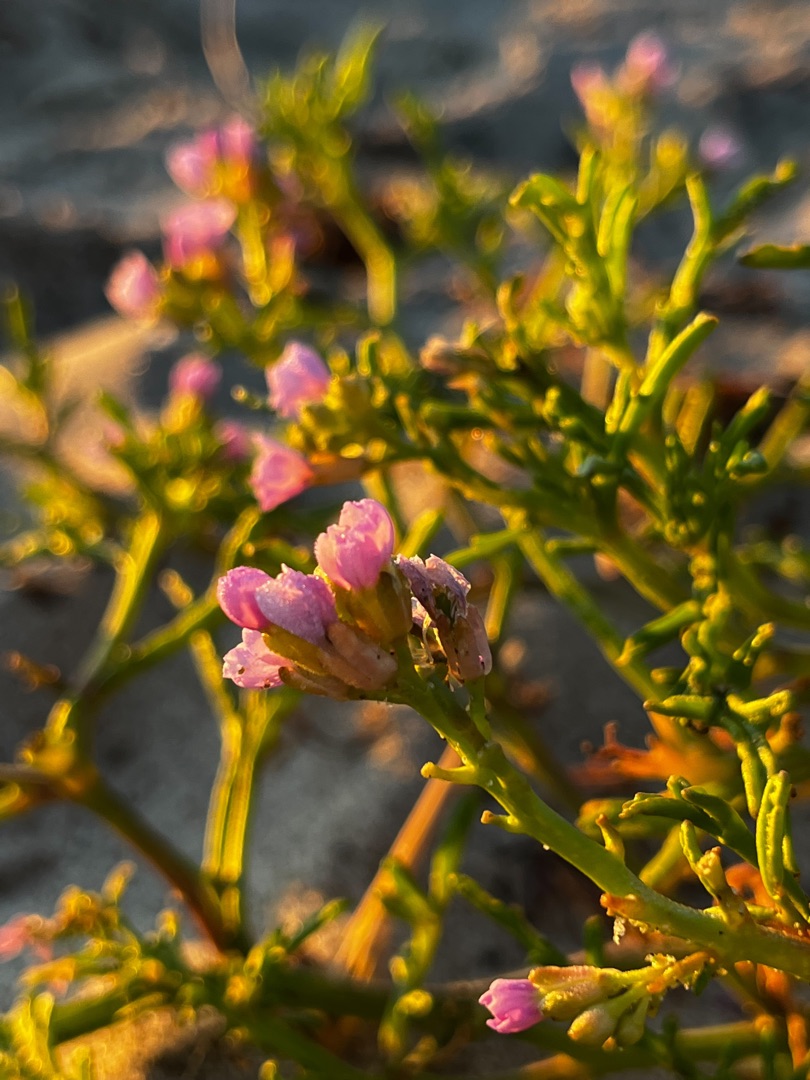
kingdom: Plantae
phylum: Tracheophyta
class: Magnoliopsida
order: Brassicales
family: Brassicaceae
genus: Cakile
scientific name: Cakile maritima
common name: Strandsennep
